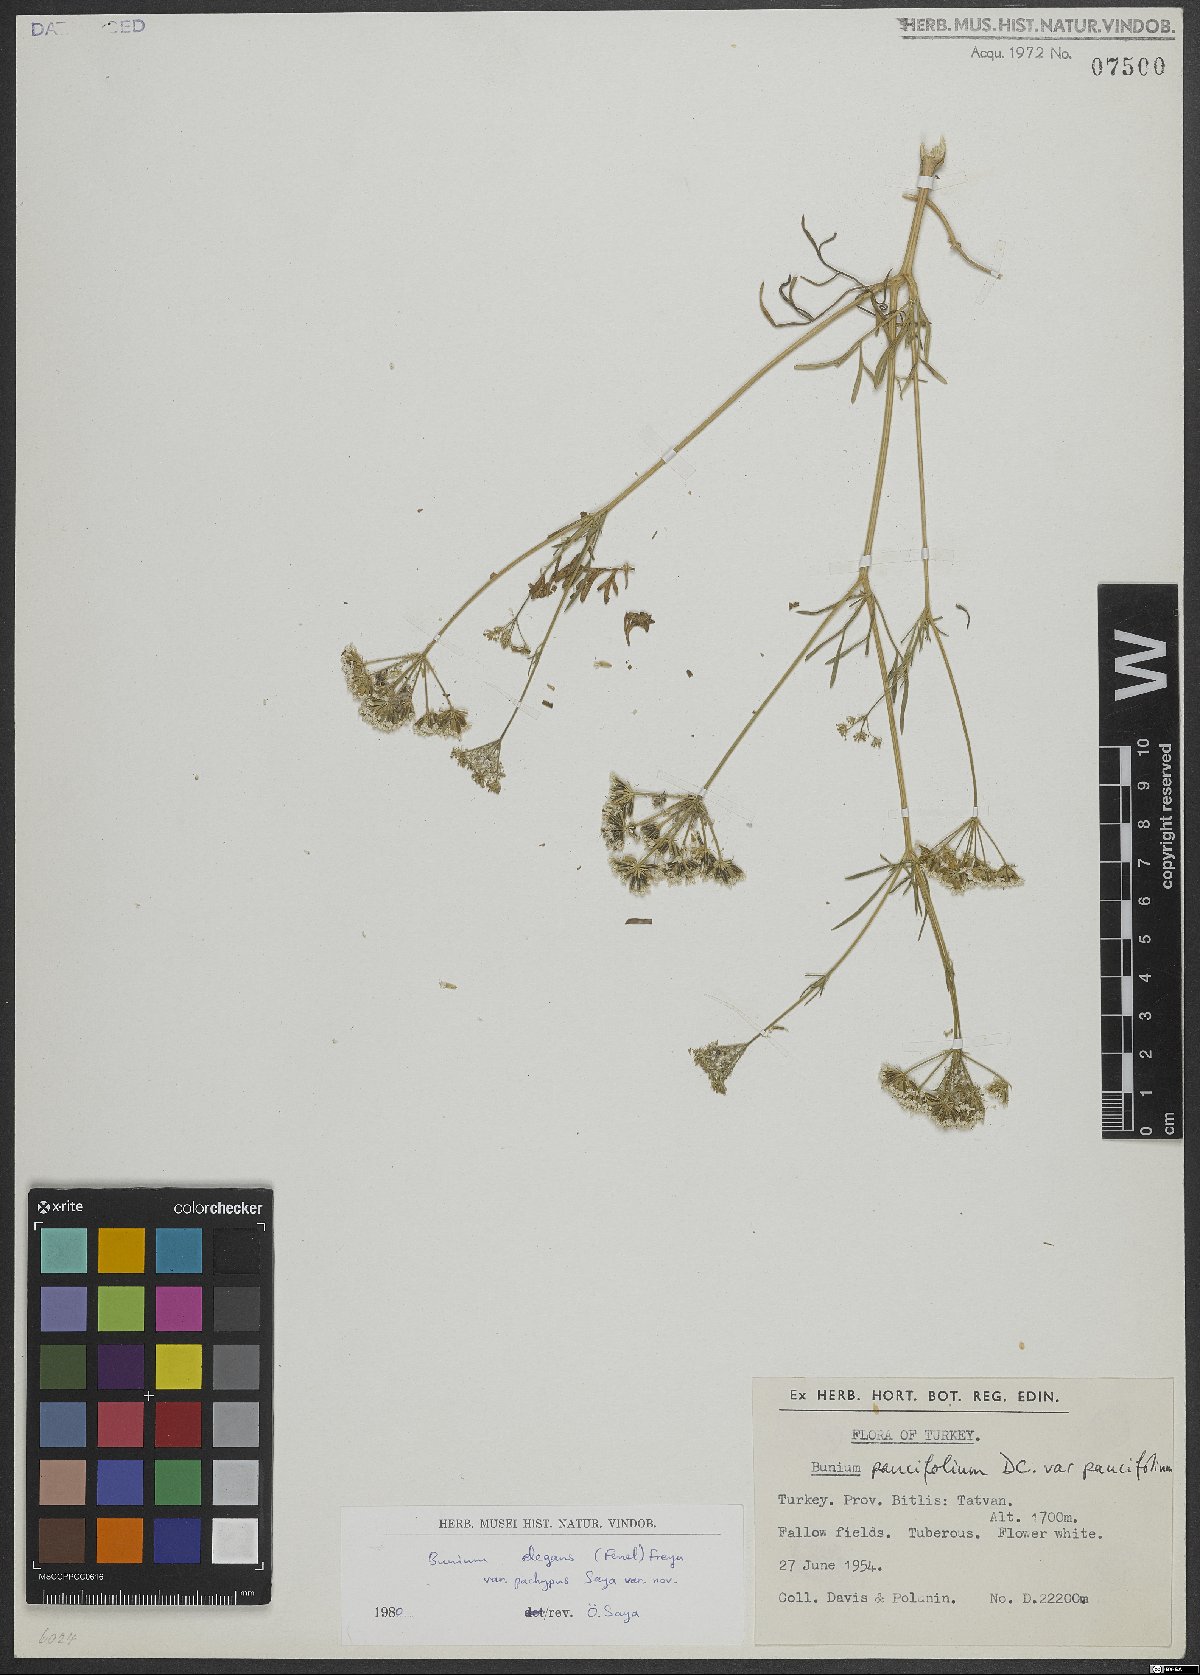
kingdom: Plantae
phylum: Tracheophyta
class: Magnoliopsida
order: Apiales
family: Apiaceae
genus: Bunium
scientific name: Bunium elegans
